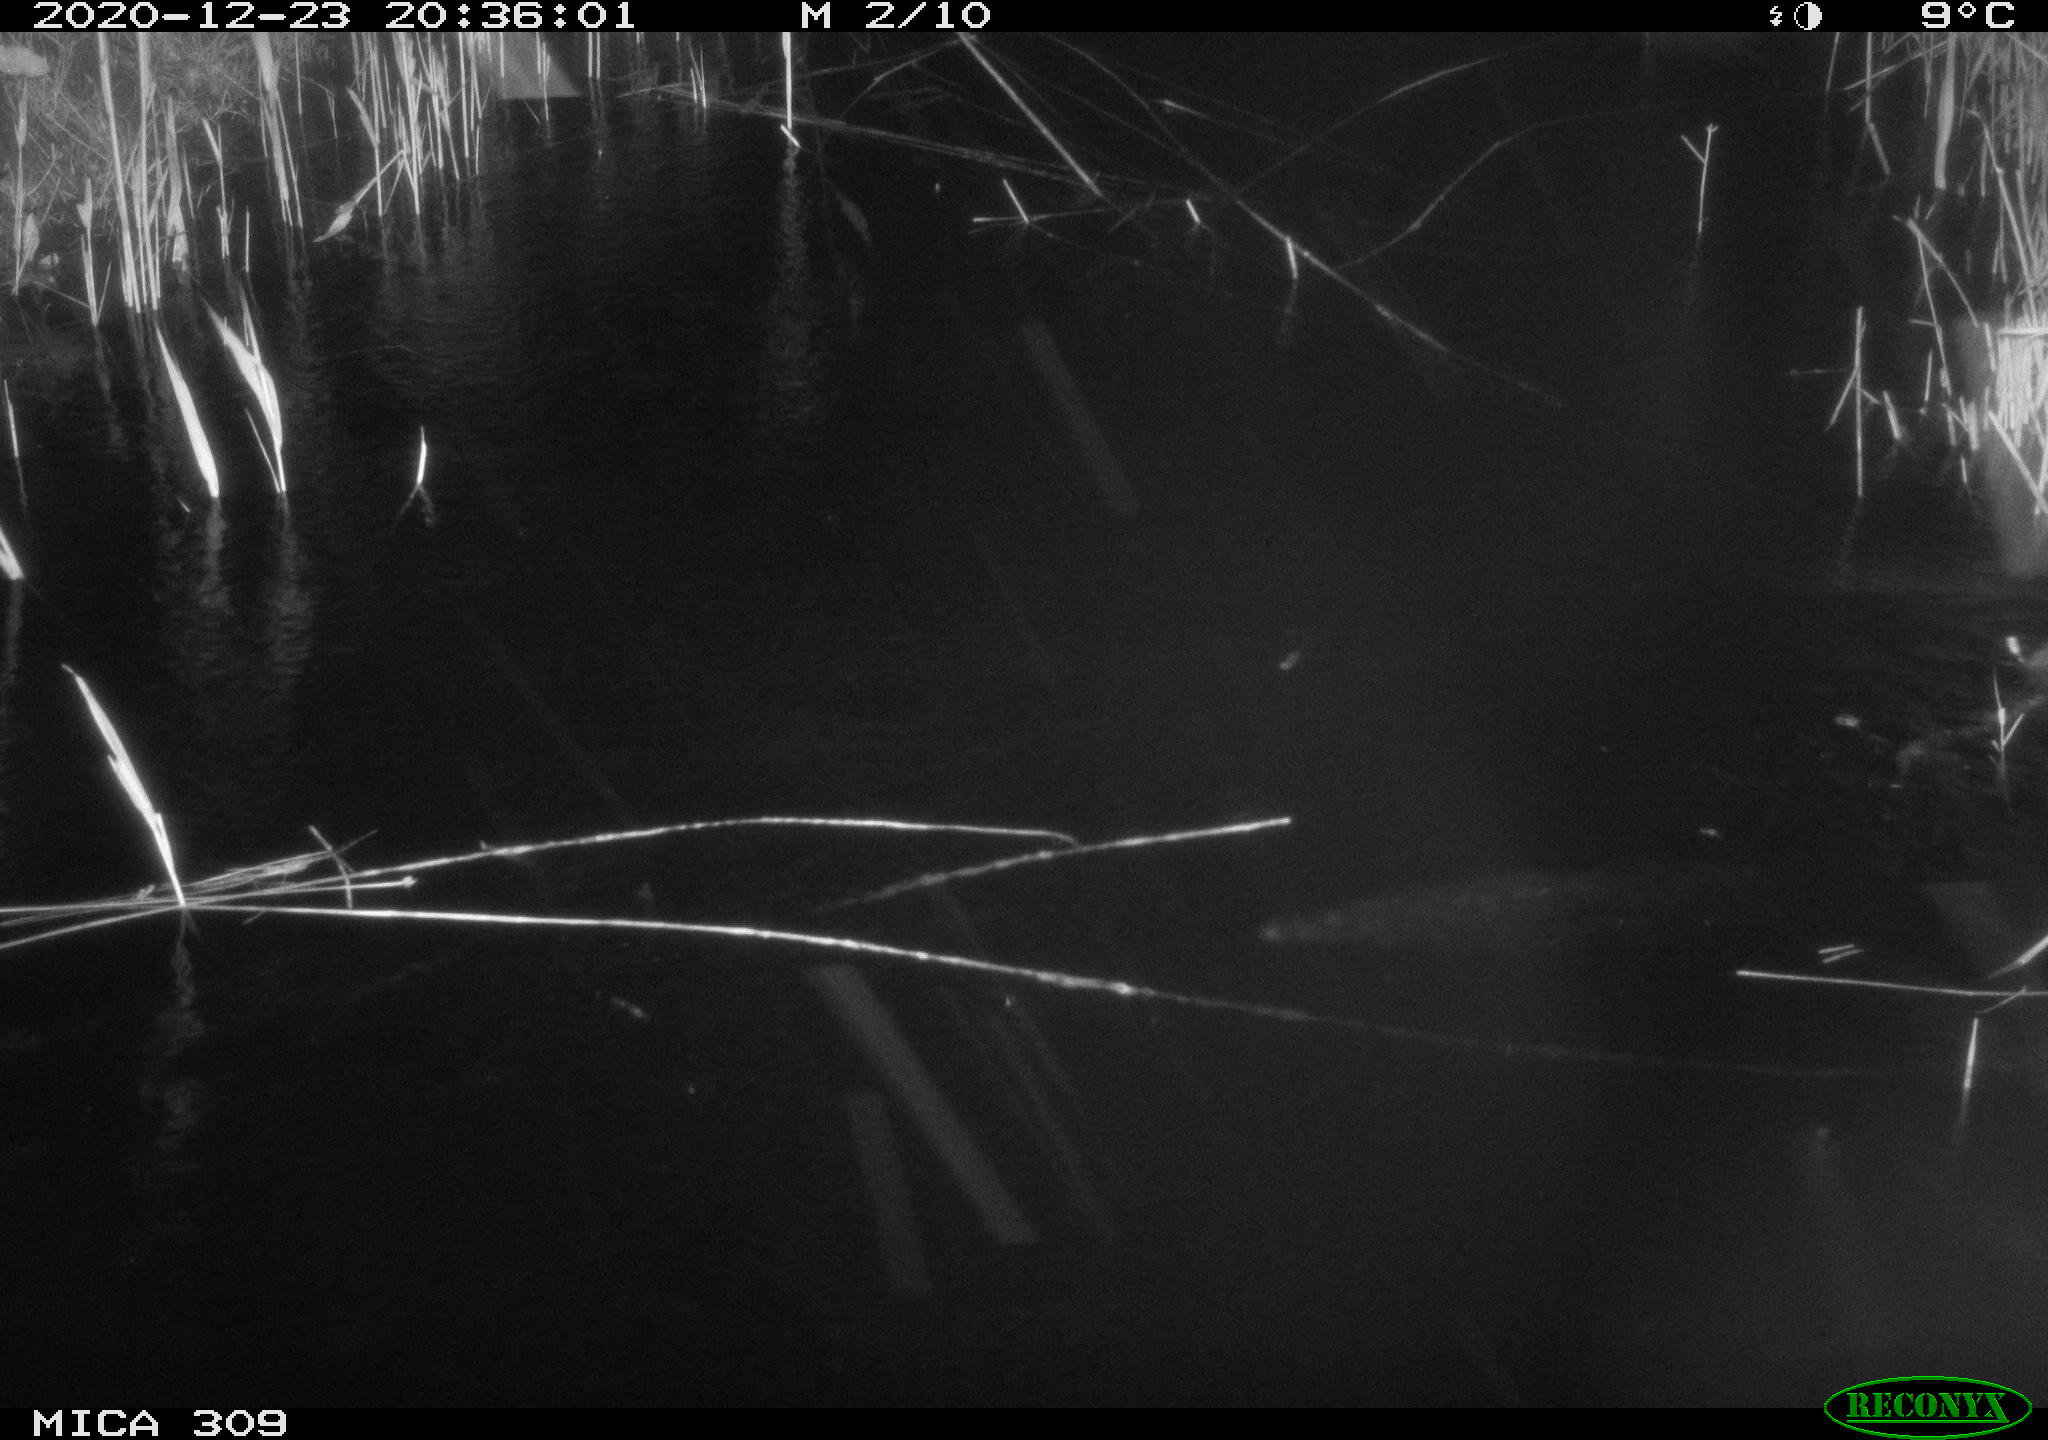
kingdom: Animalia
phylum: Chordata
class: Mammalia
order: Rodentia
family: Muridae
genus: Rattus
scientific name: Rattus norvegicus
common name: Brown rat
